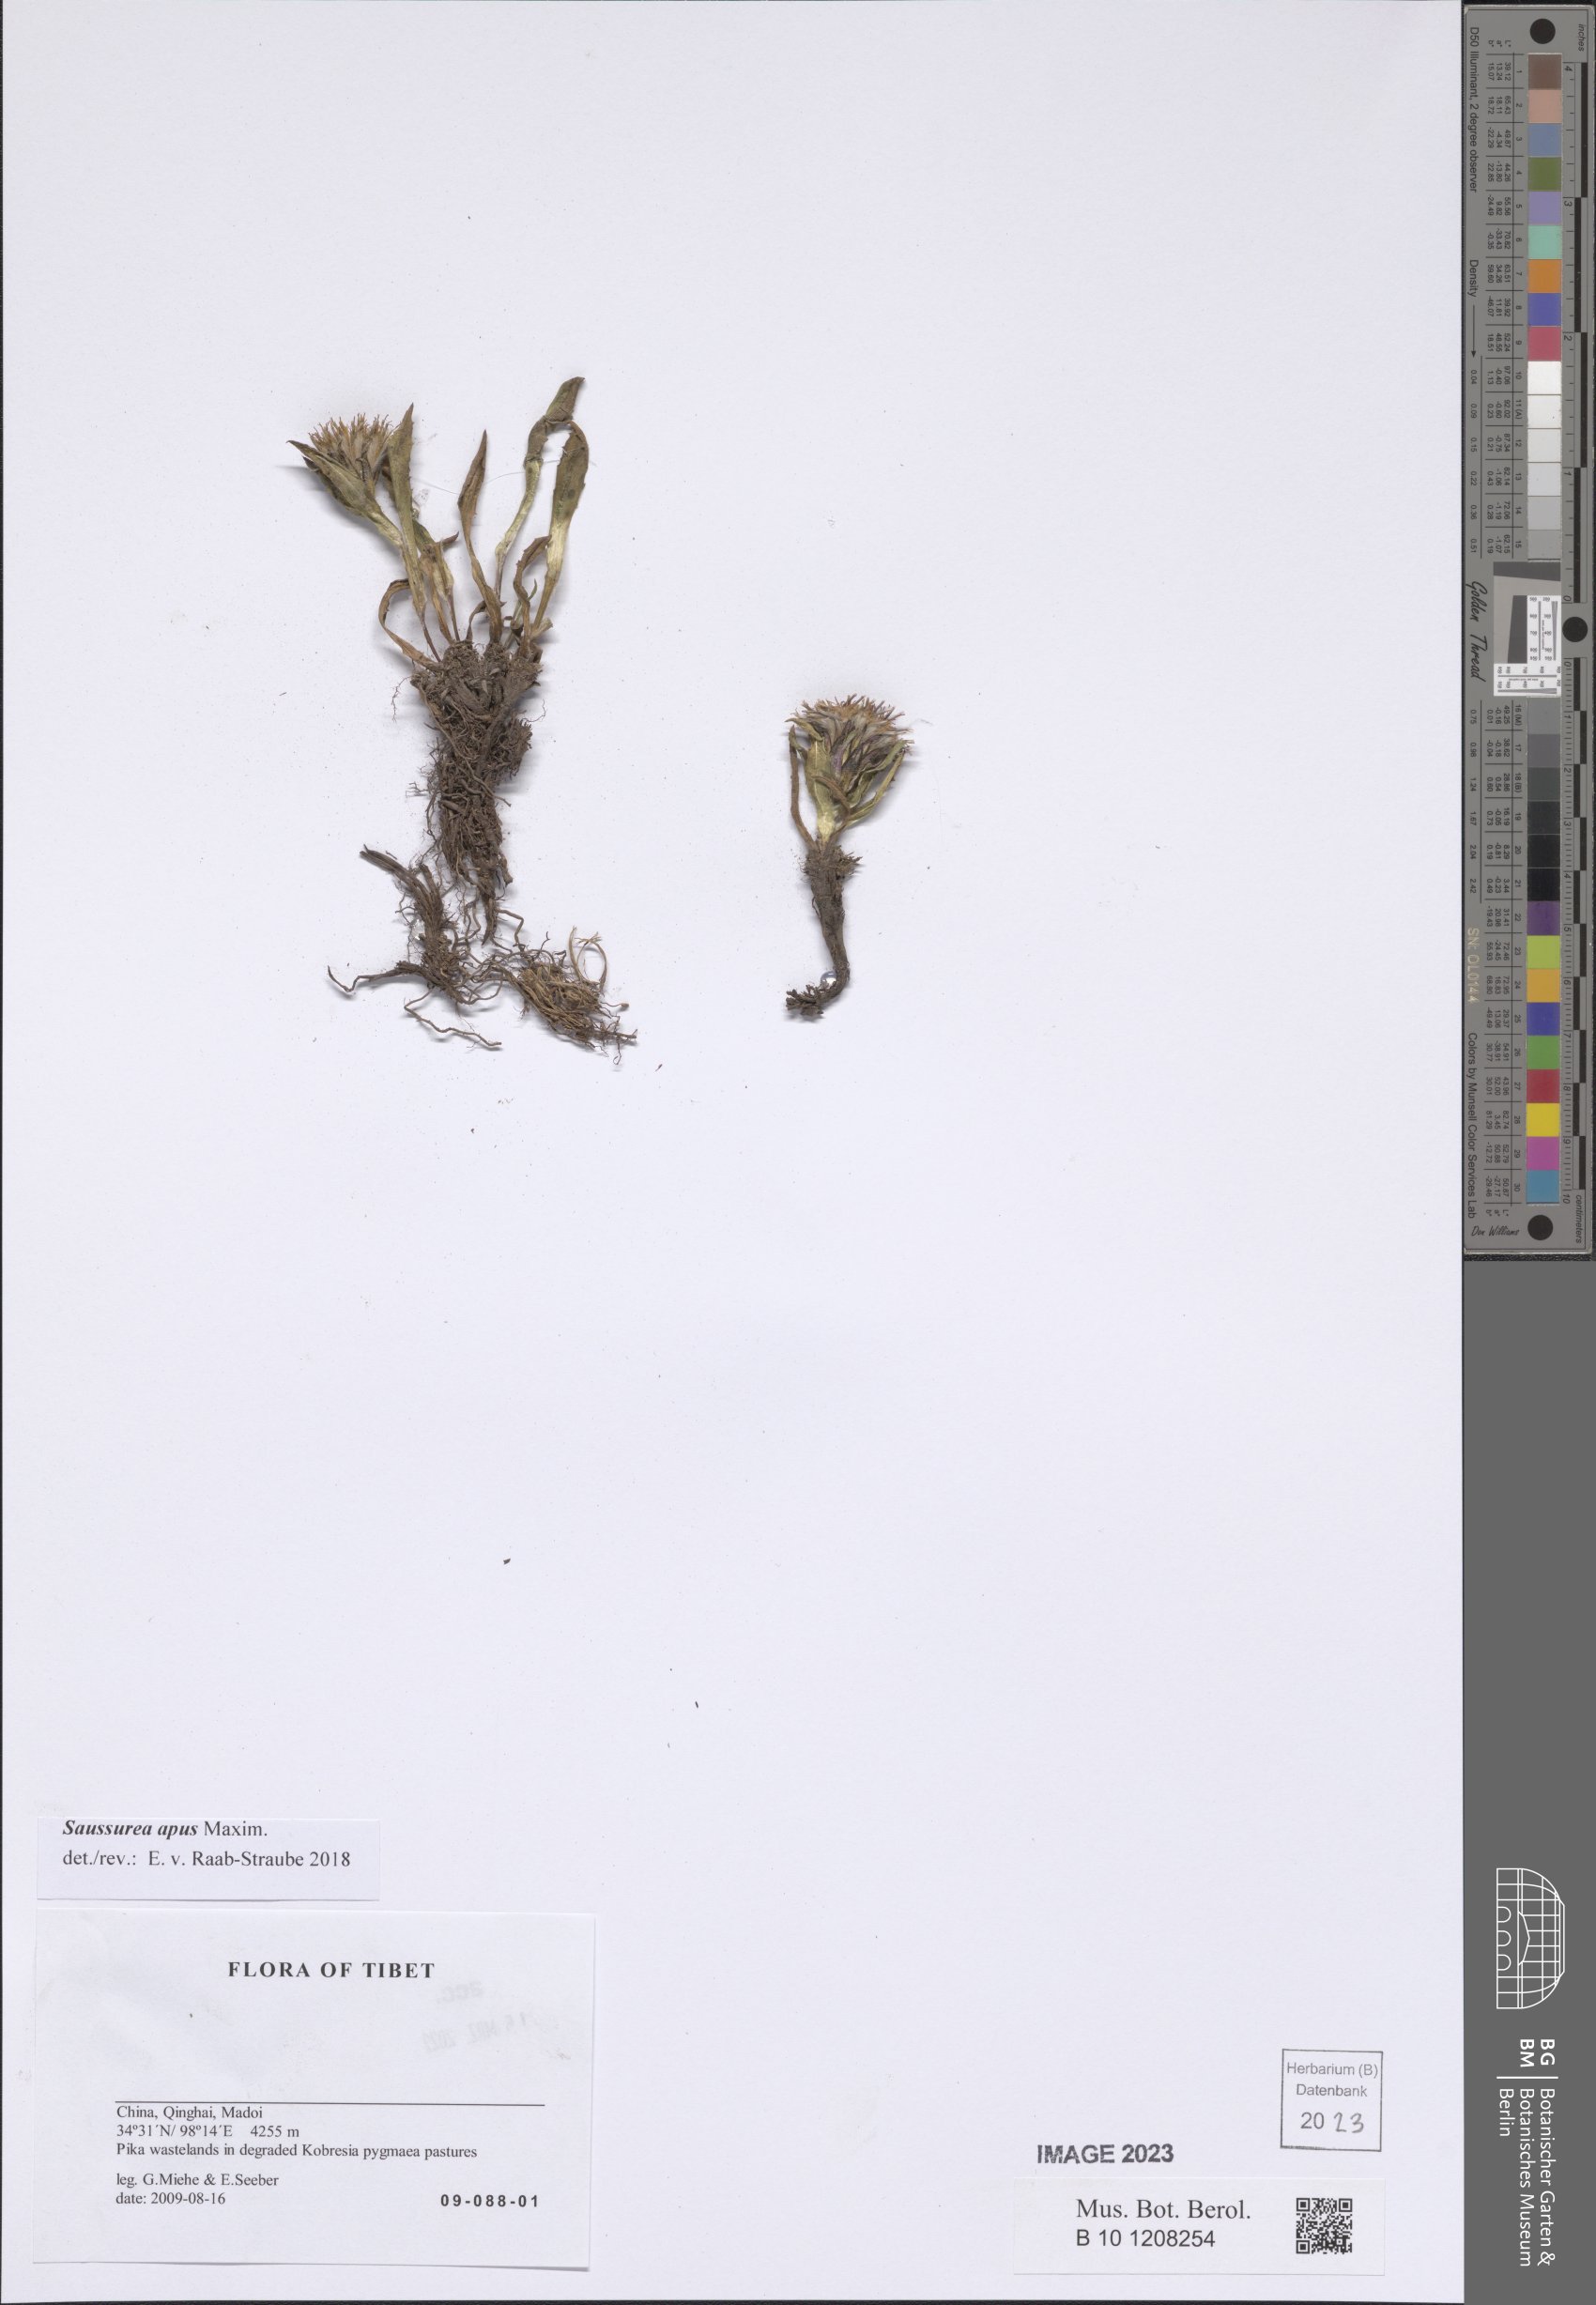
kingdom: Plantae
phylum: Tracheophyta
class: Magnoliopsida
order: Asterales
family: Asteraceae
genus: Saussurea
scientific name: Saussurea apus
